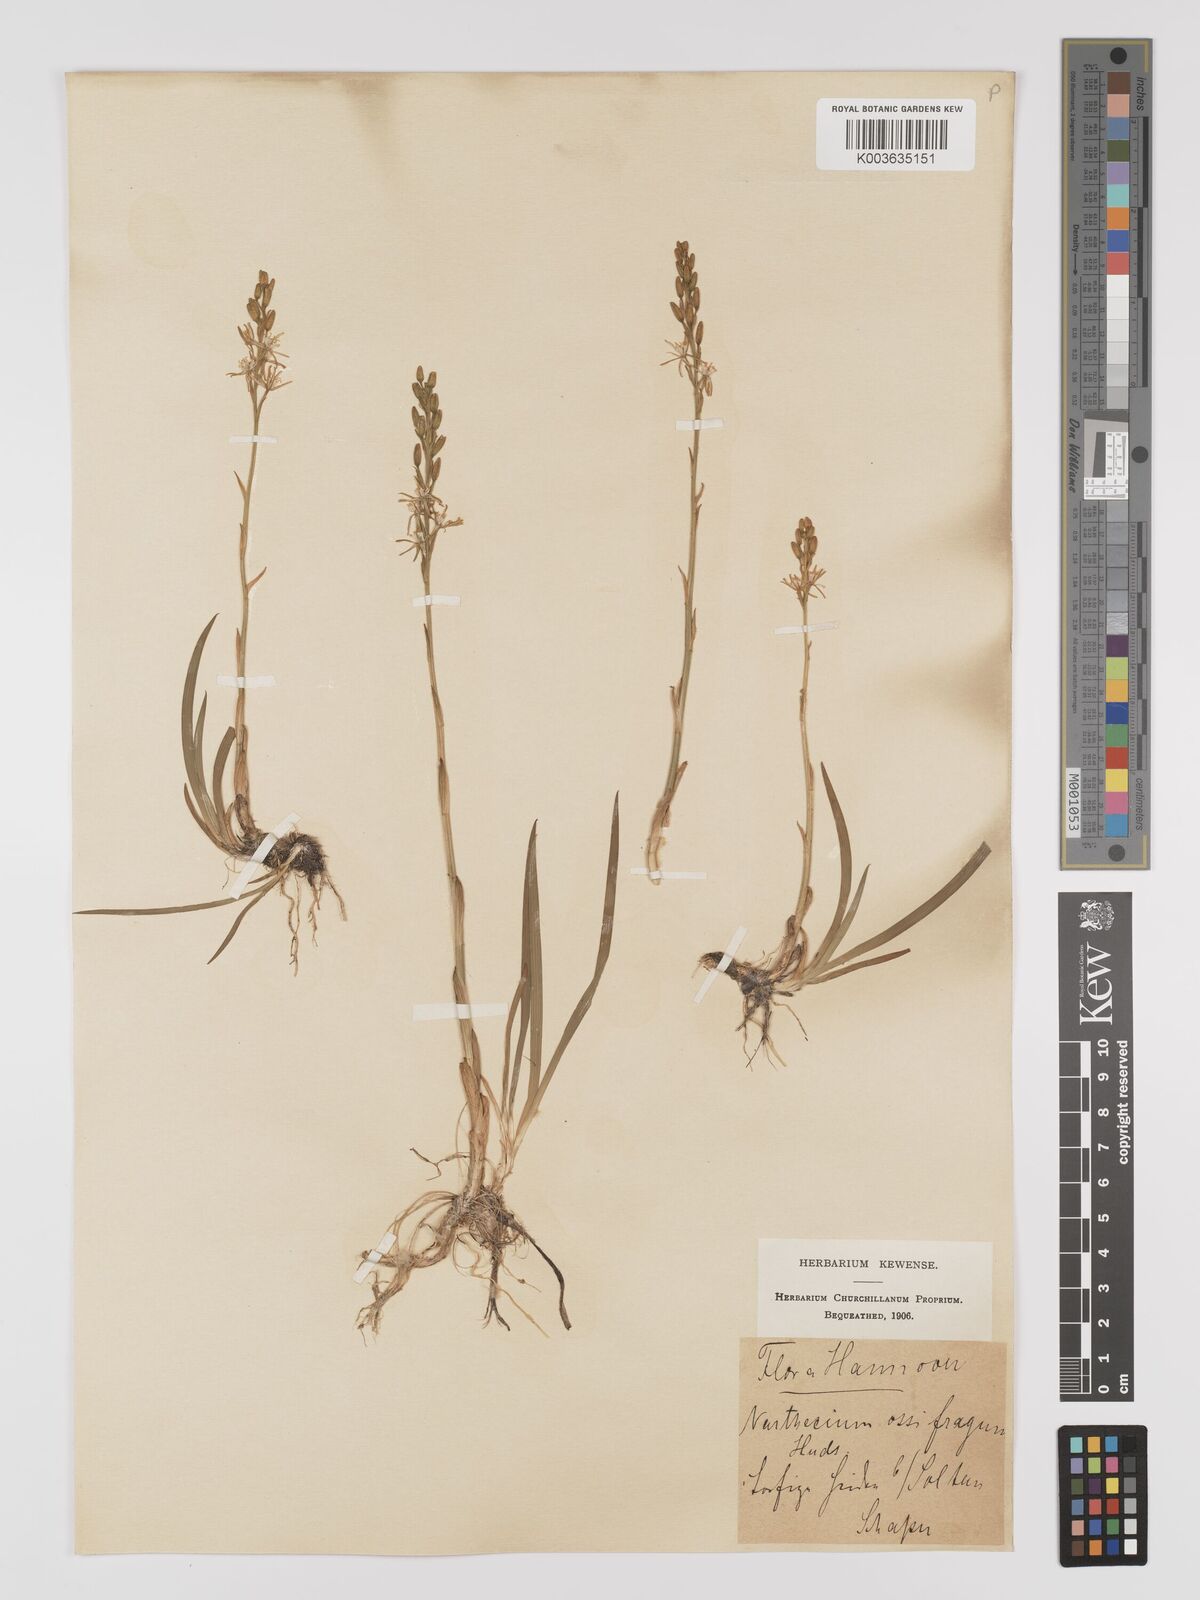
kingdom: Plantae
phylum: Tracheophyta
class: Liliopsida
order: Dioscoreales
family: Nartheciaceae
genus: Narthecium
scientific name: Narthecium ossifragum
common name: Bog asphodel
